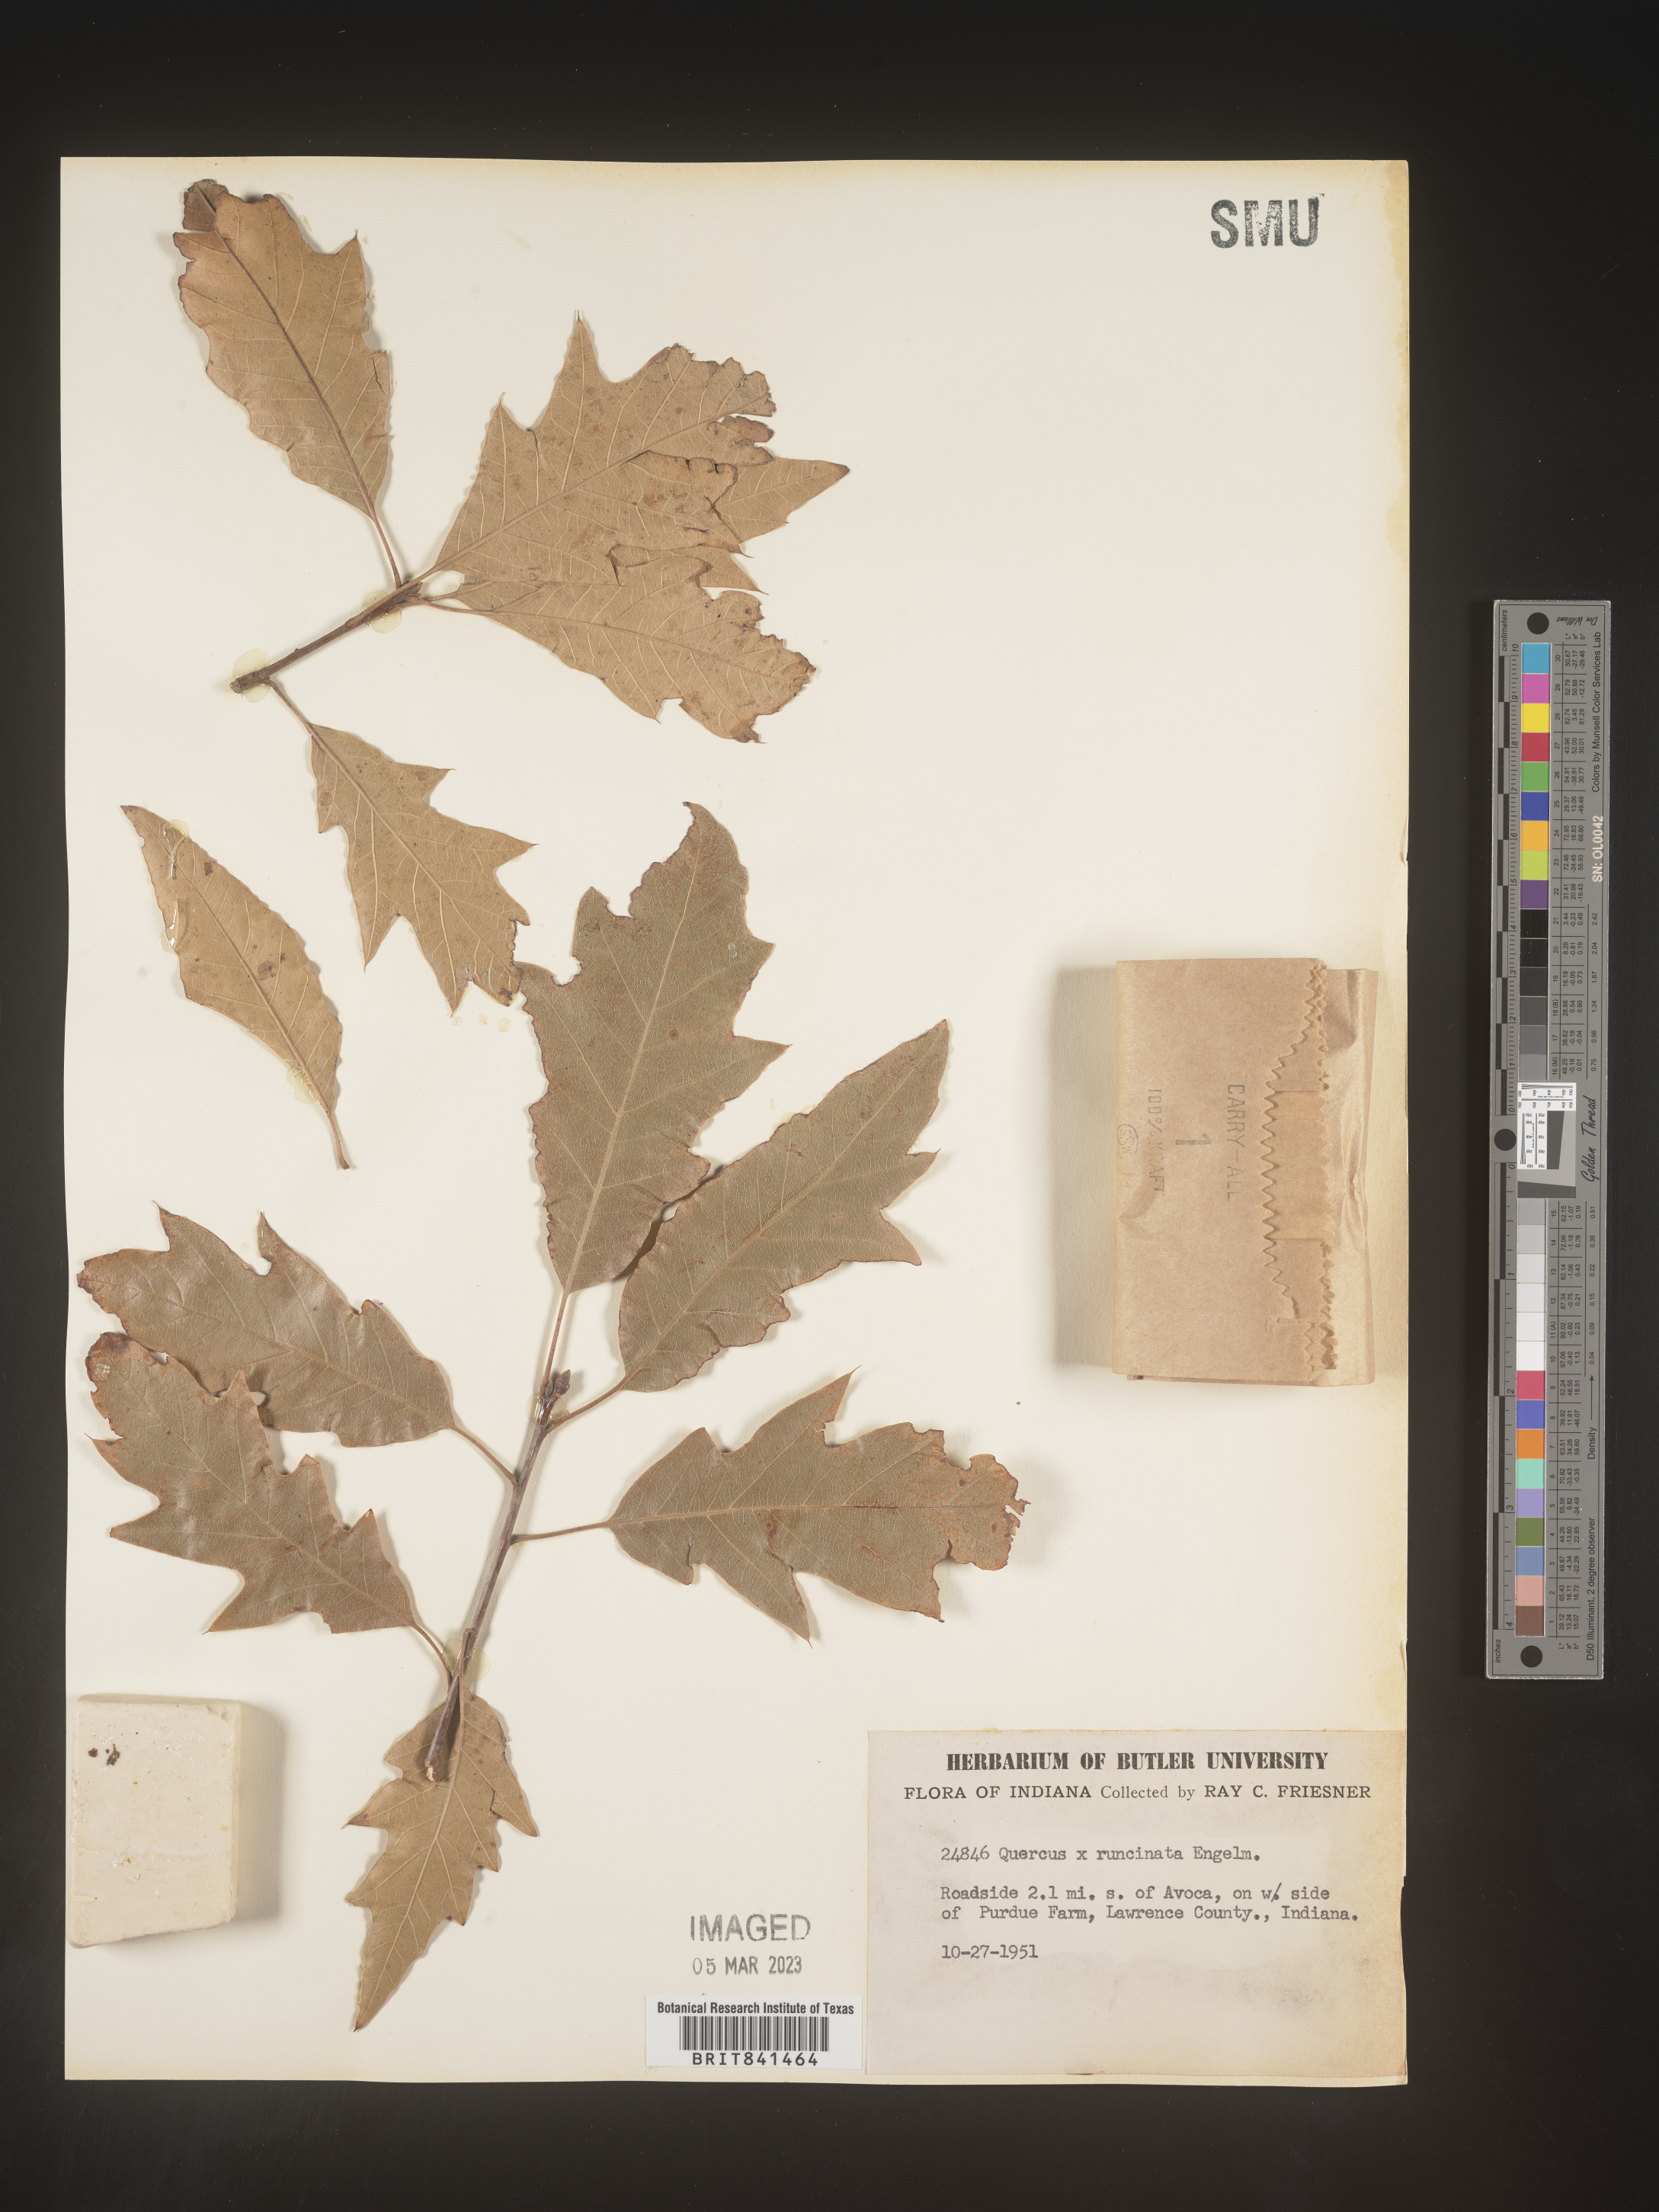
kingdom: Plantae
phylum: Tracheophyta
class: Magnoliopsida
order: Fagales
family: Fagaceae
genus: Quercus
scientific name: Quercus runcinata
